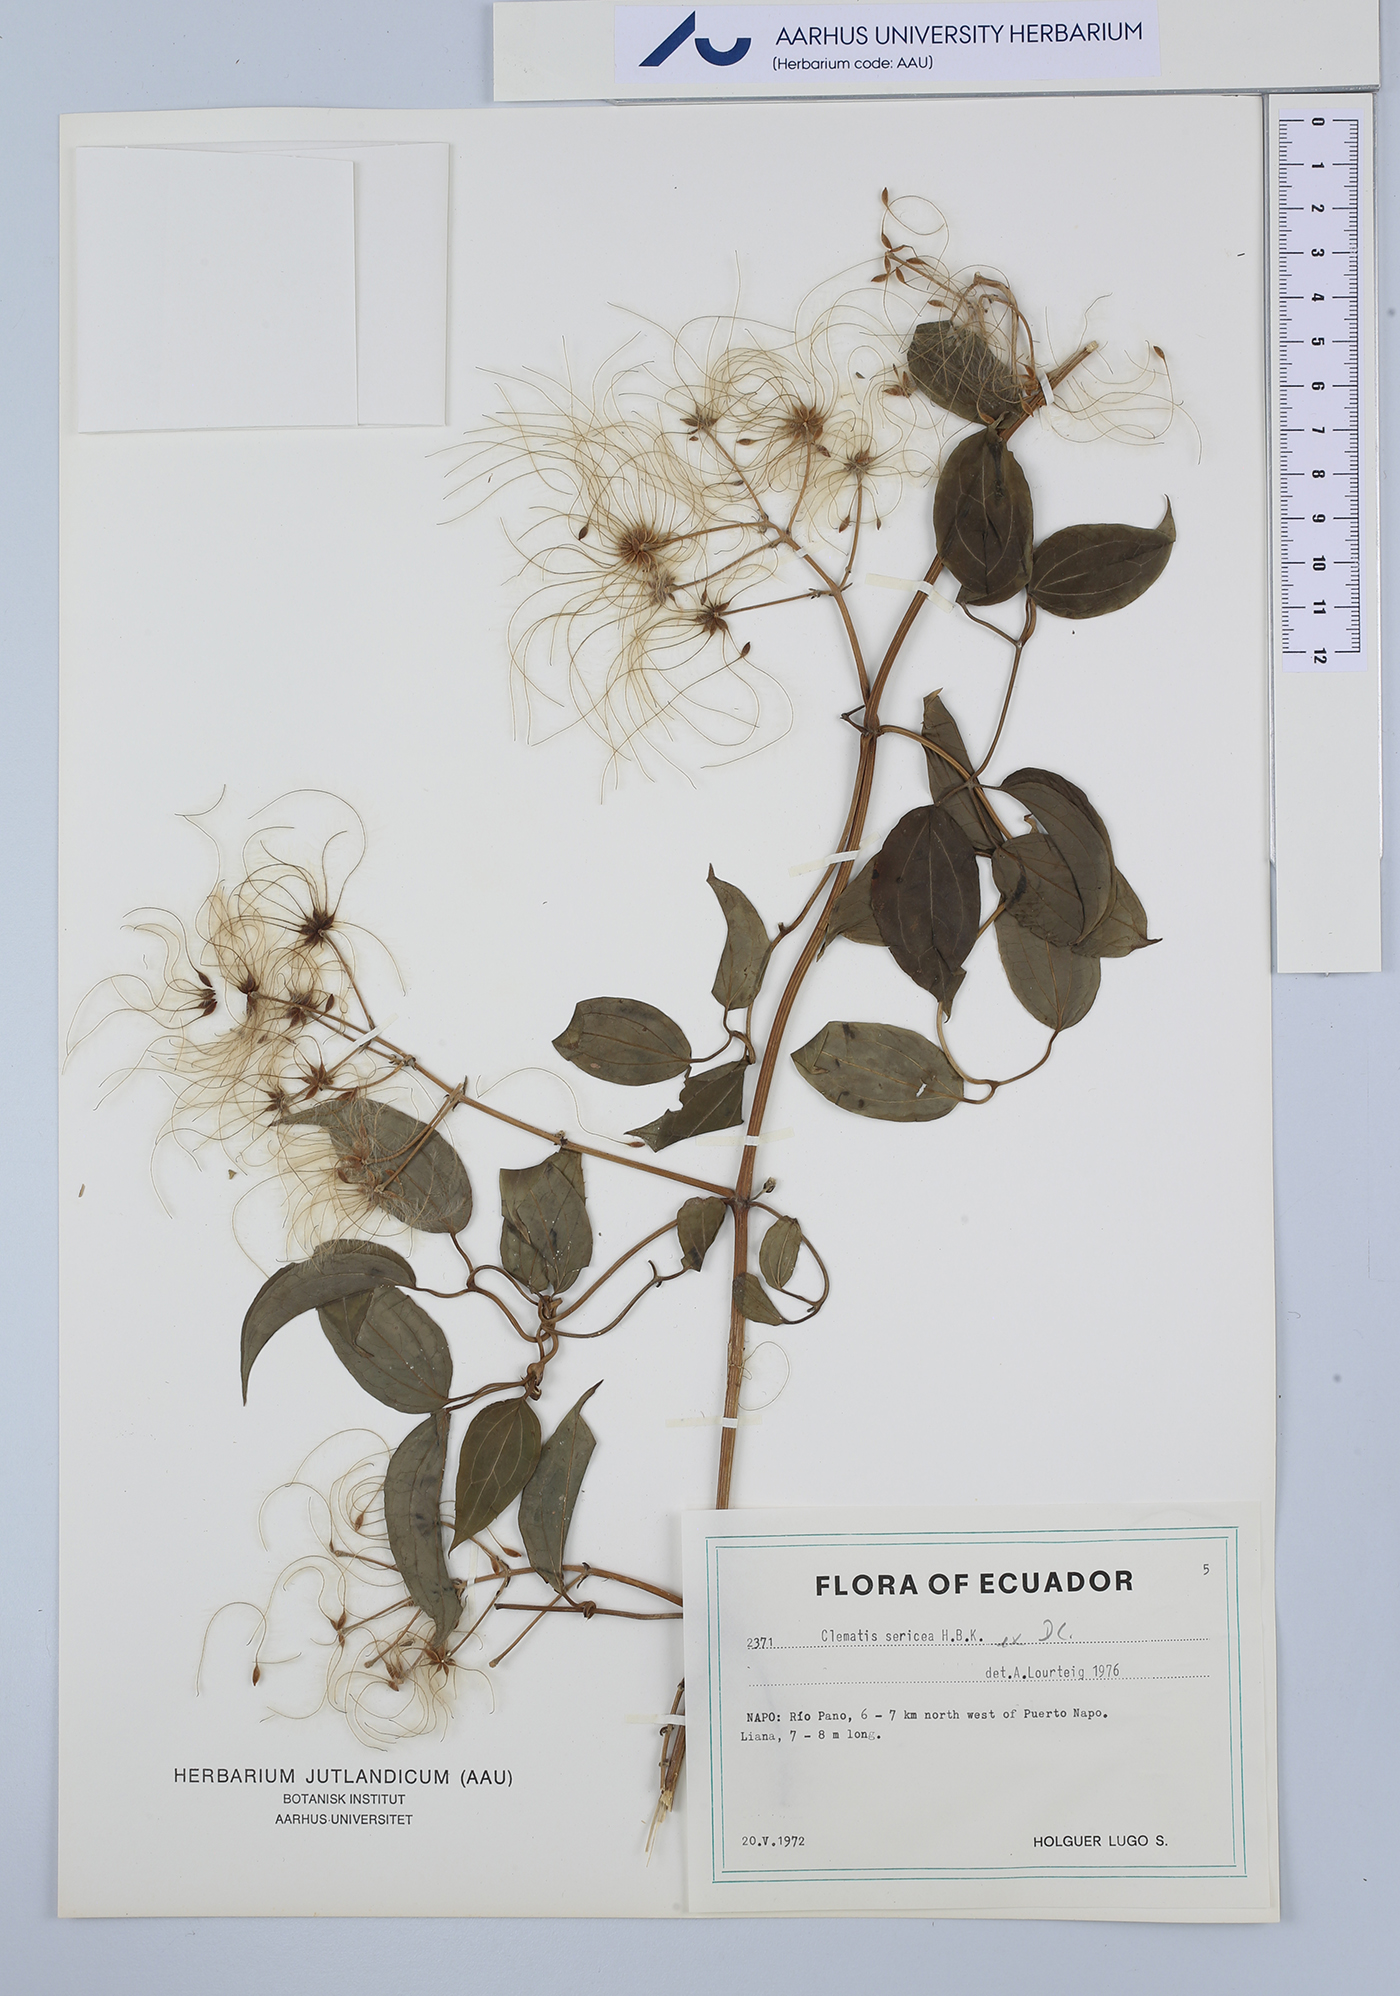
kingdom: Plantae
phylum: Tracheophyta
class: Magnoliopsida
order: Ranunculales
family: Ranunculaceae
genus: Clematis
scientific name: Clematis haenkeana
